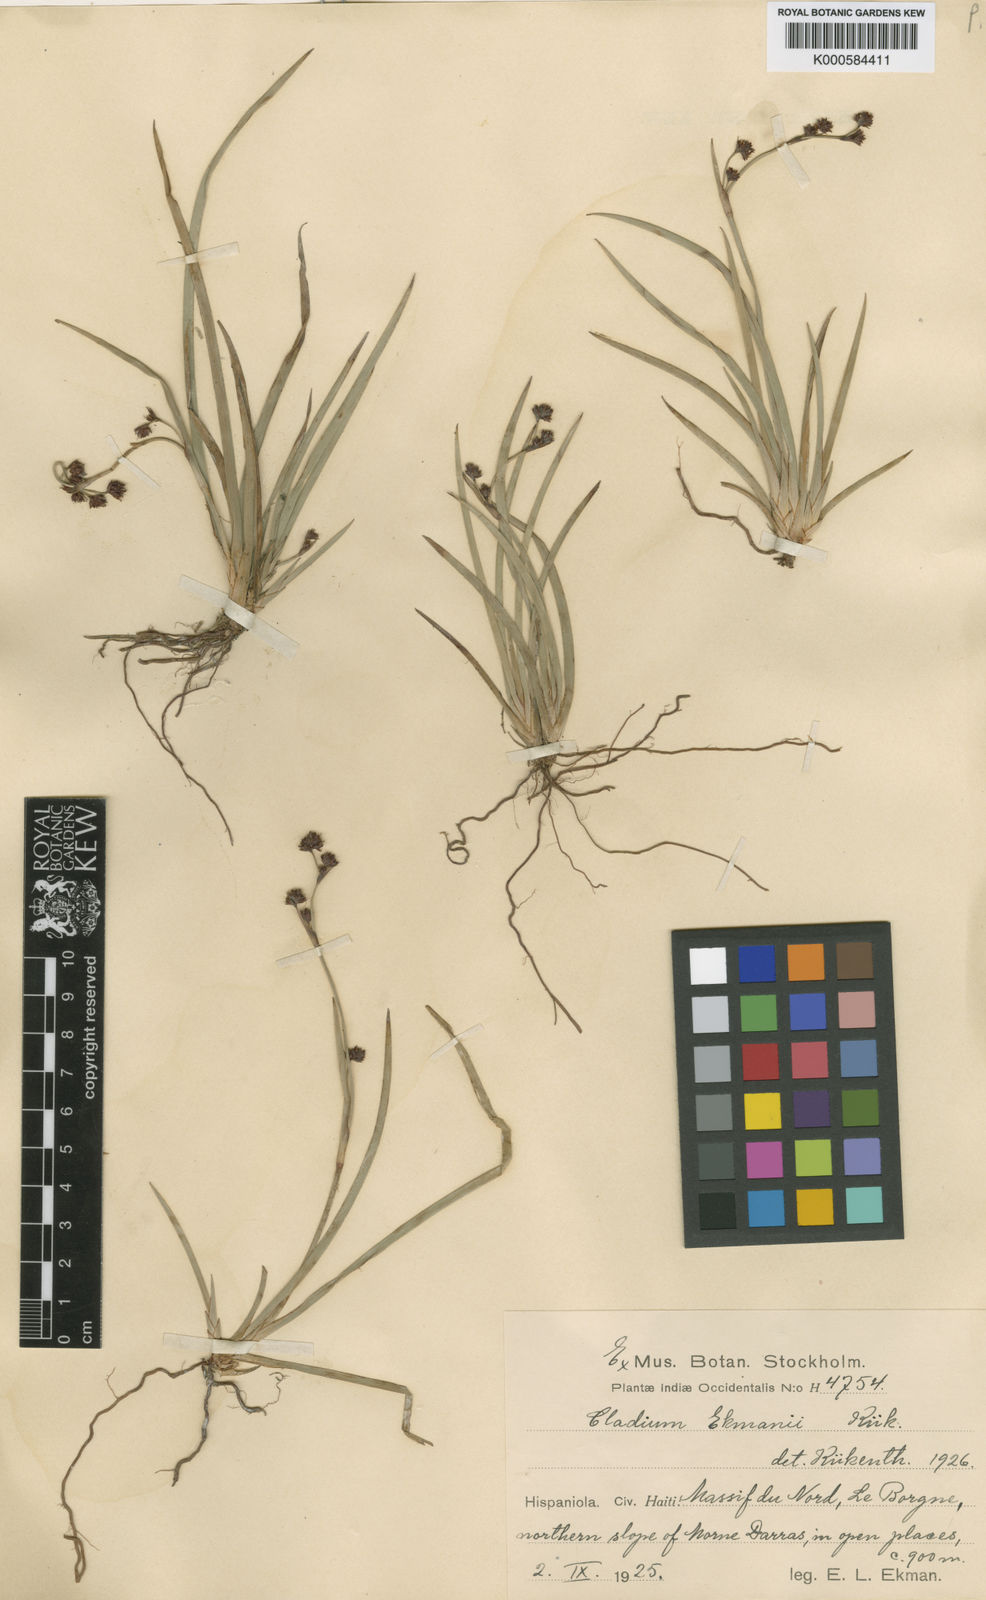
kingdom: Plantae
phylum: Tracheophyta
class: Liliopsida
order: Poales
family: Cyperaceae
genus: Machaerina
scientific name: Machaerina
